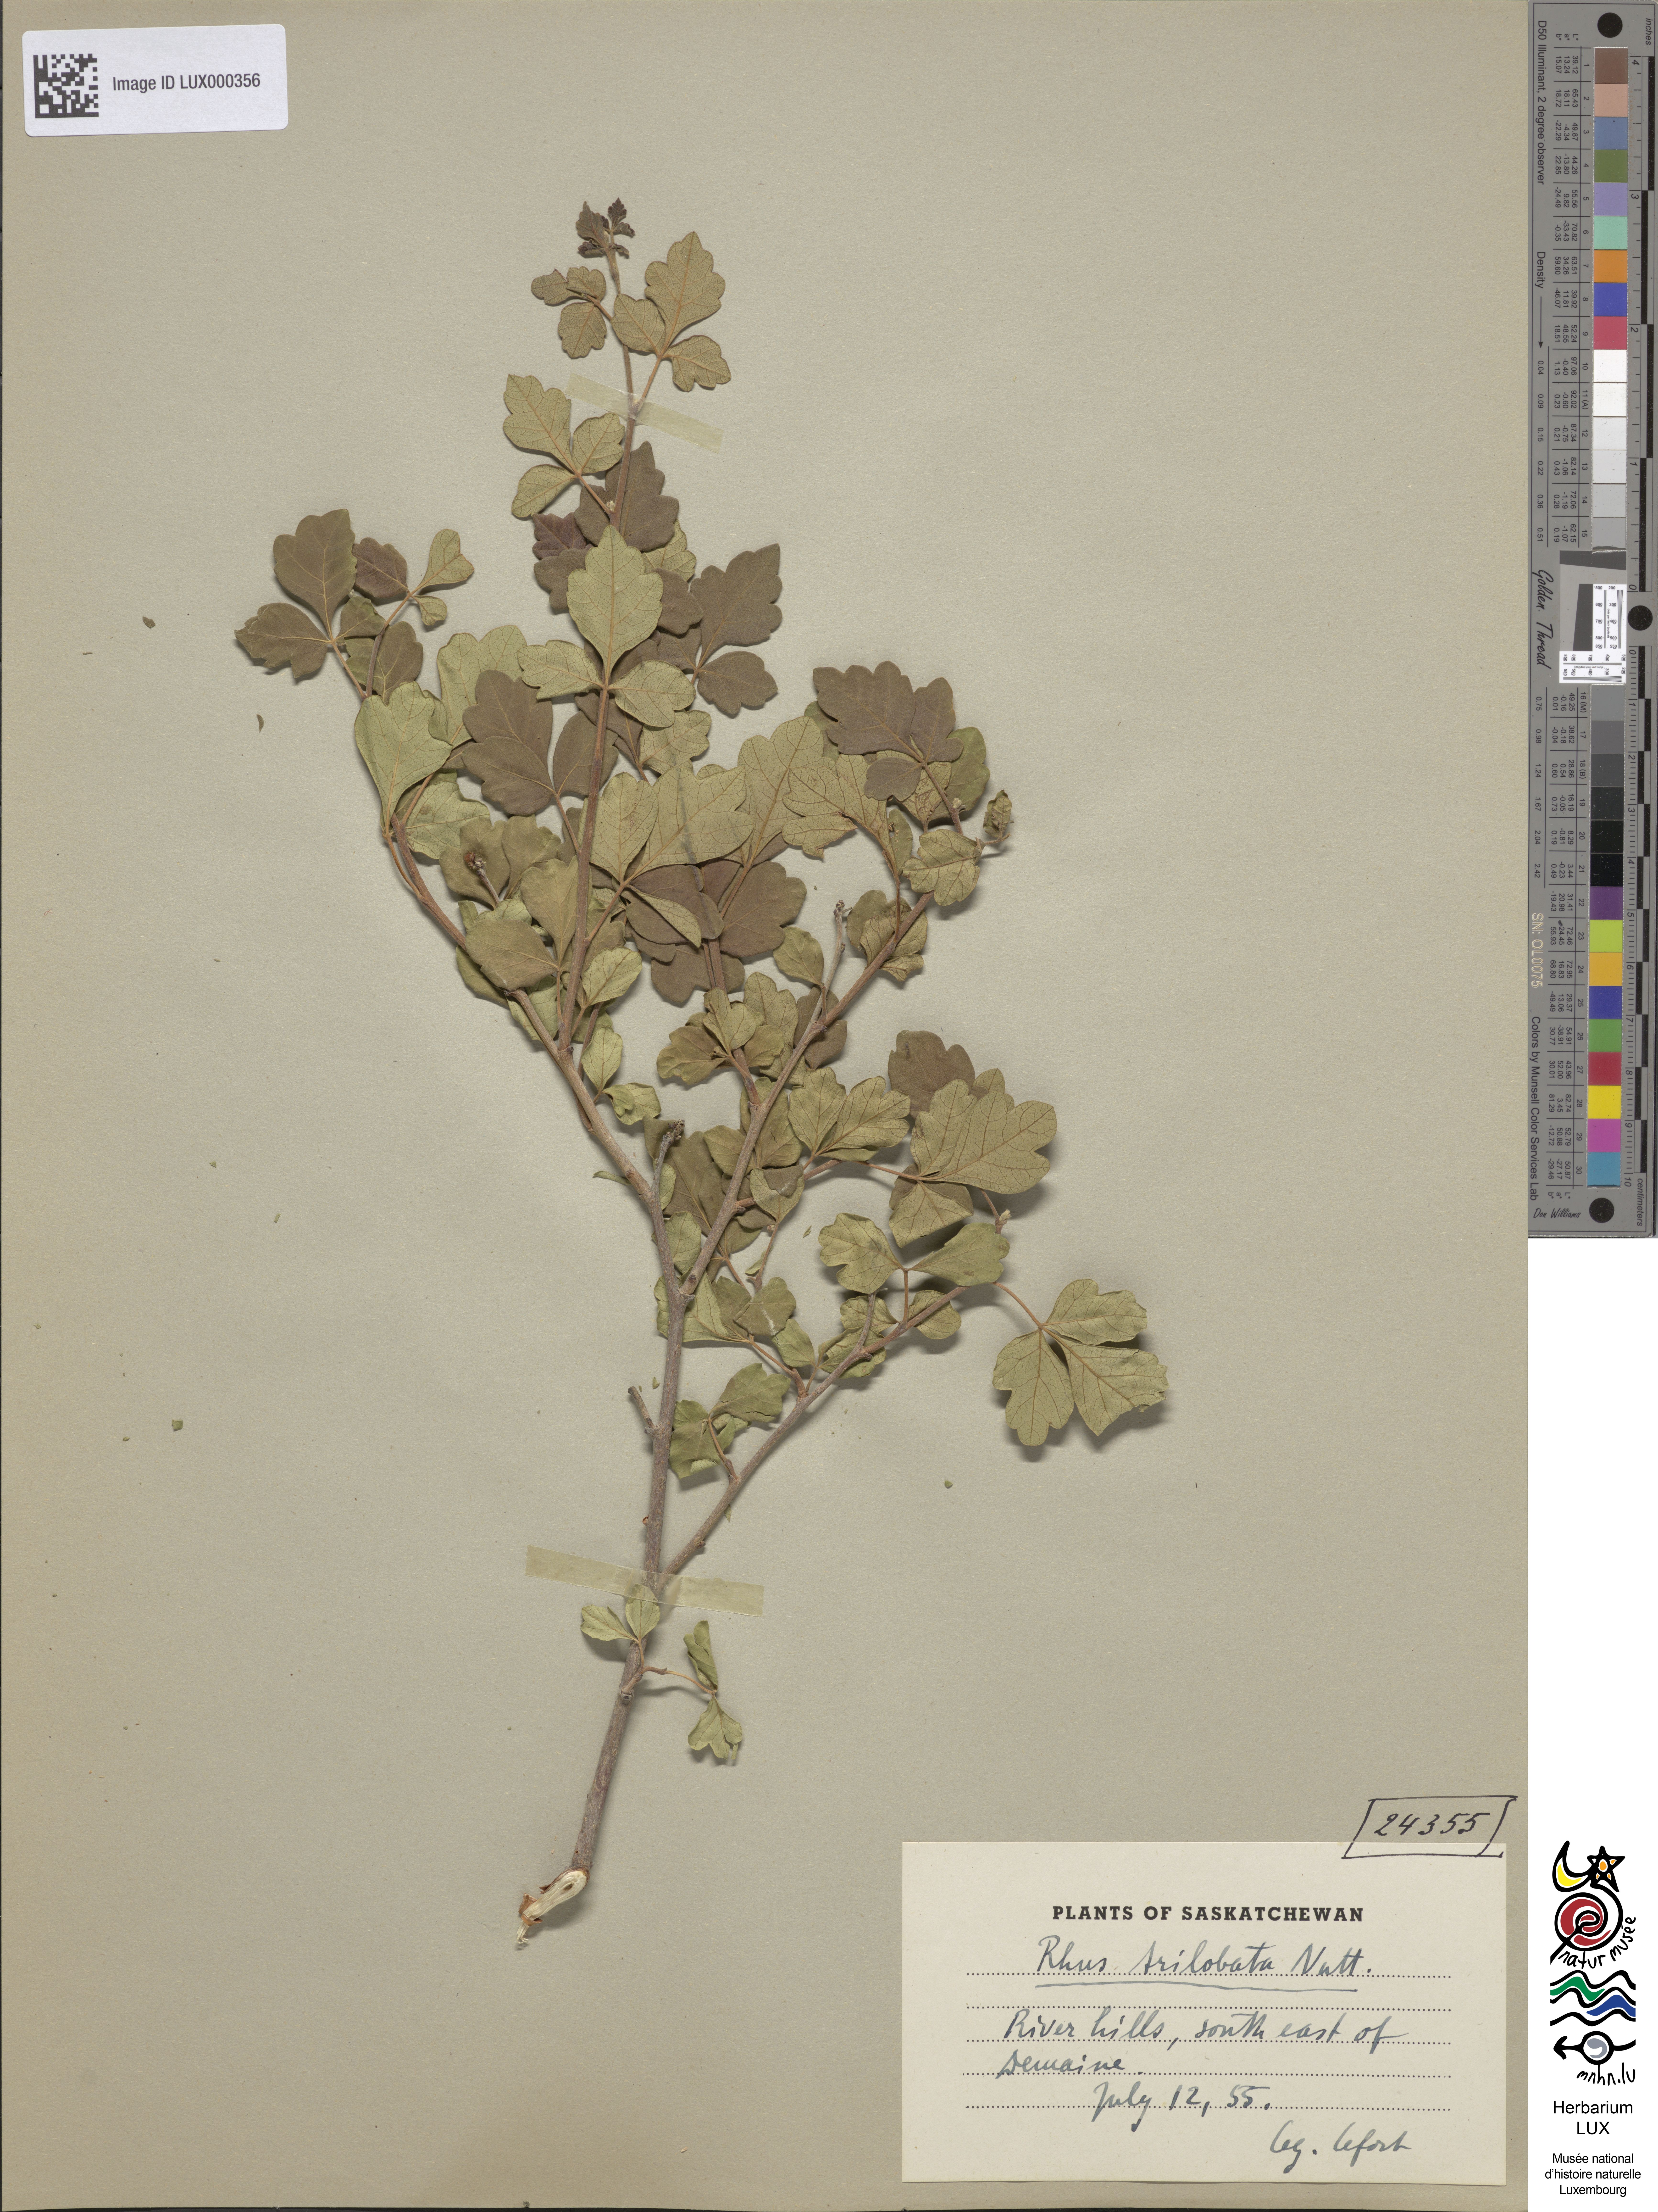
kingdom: Plantae
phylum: Tracheophyta
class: Magnoliopsida
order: Sapindales
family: Anacardiaceae
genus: Rhus
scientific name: Rhus trilobata
